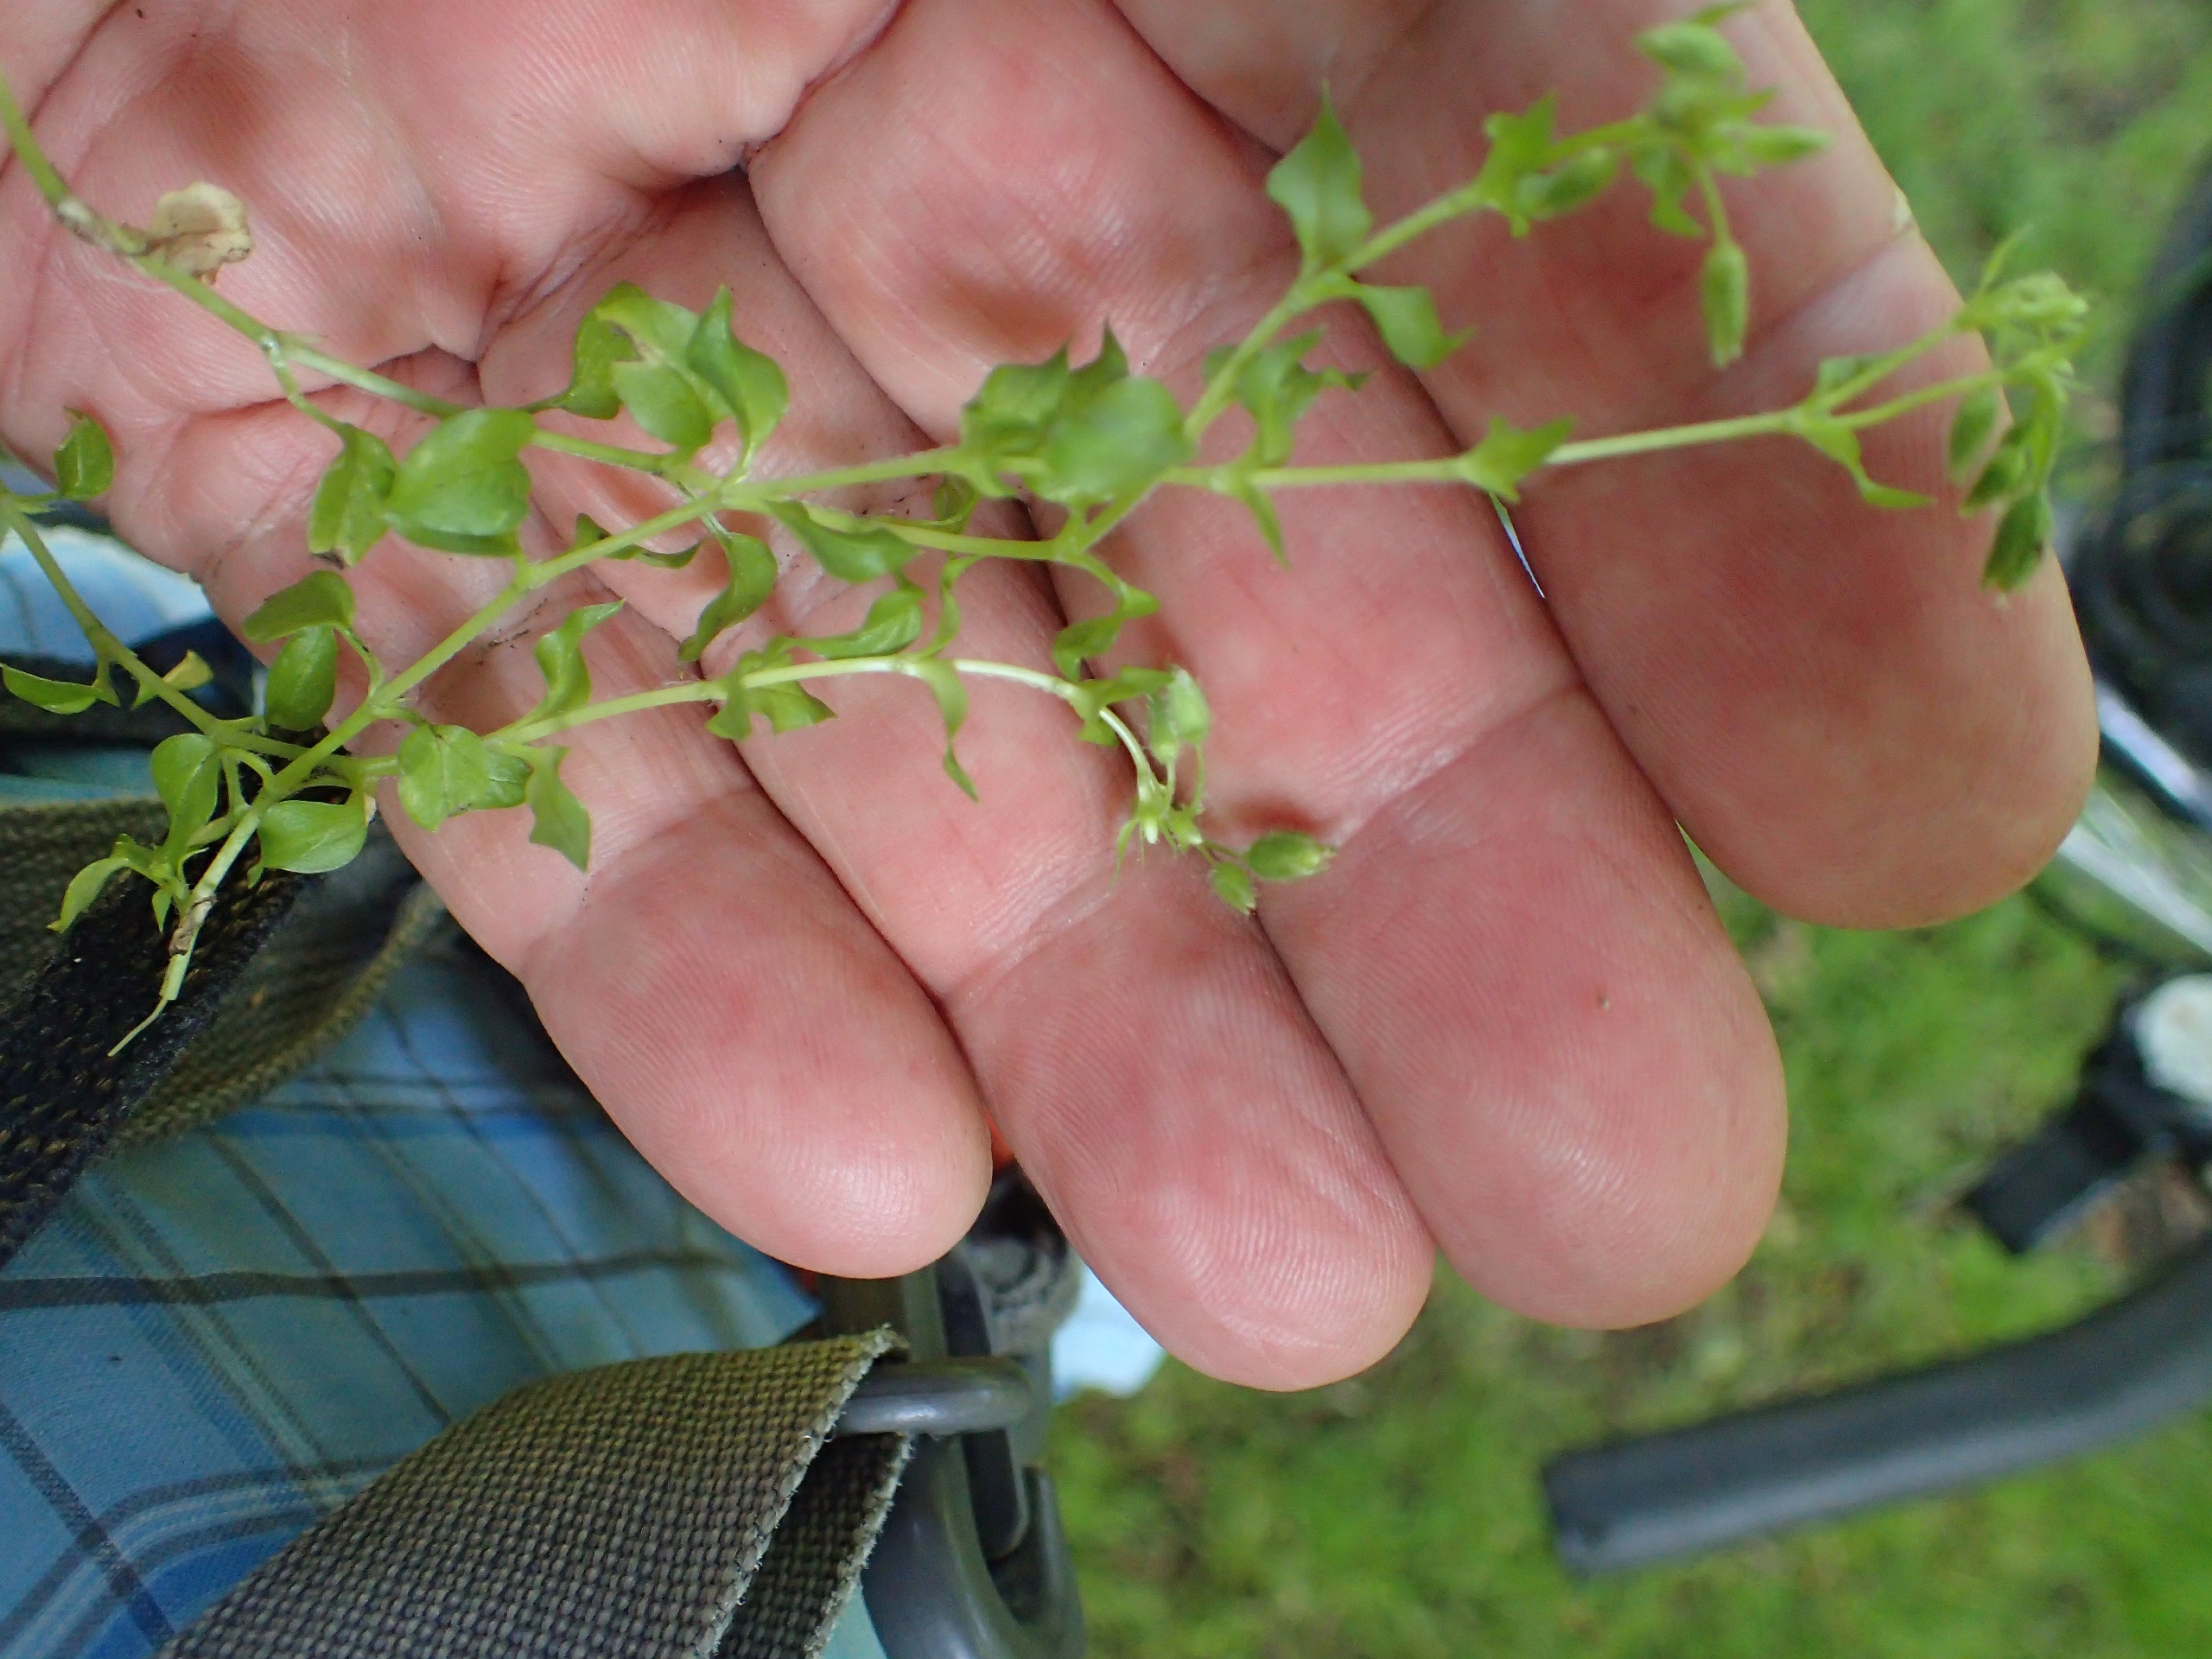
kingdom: Plantae
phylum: Tracheophyta
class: Magnoliopsida
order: Caryophyllales
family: Caryophyllaceae
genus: Stellaria
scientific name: Stellaria media
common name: Almindelig fuglegræs
